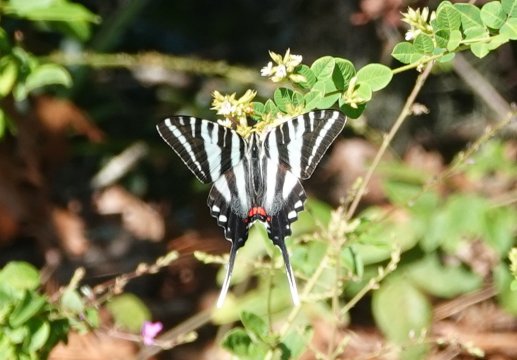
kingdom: Animalia
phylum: Arthropoda
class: Insecta
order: Lepidoptera
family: Papilionidae
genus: Protographium
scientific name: Protographium marcellus
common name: Zebra Swallowtail
